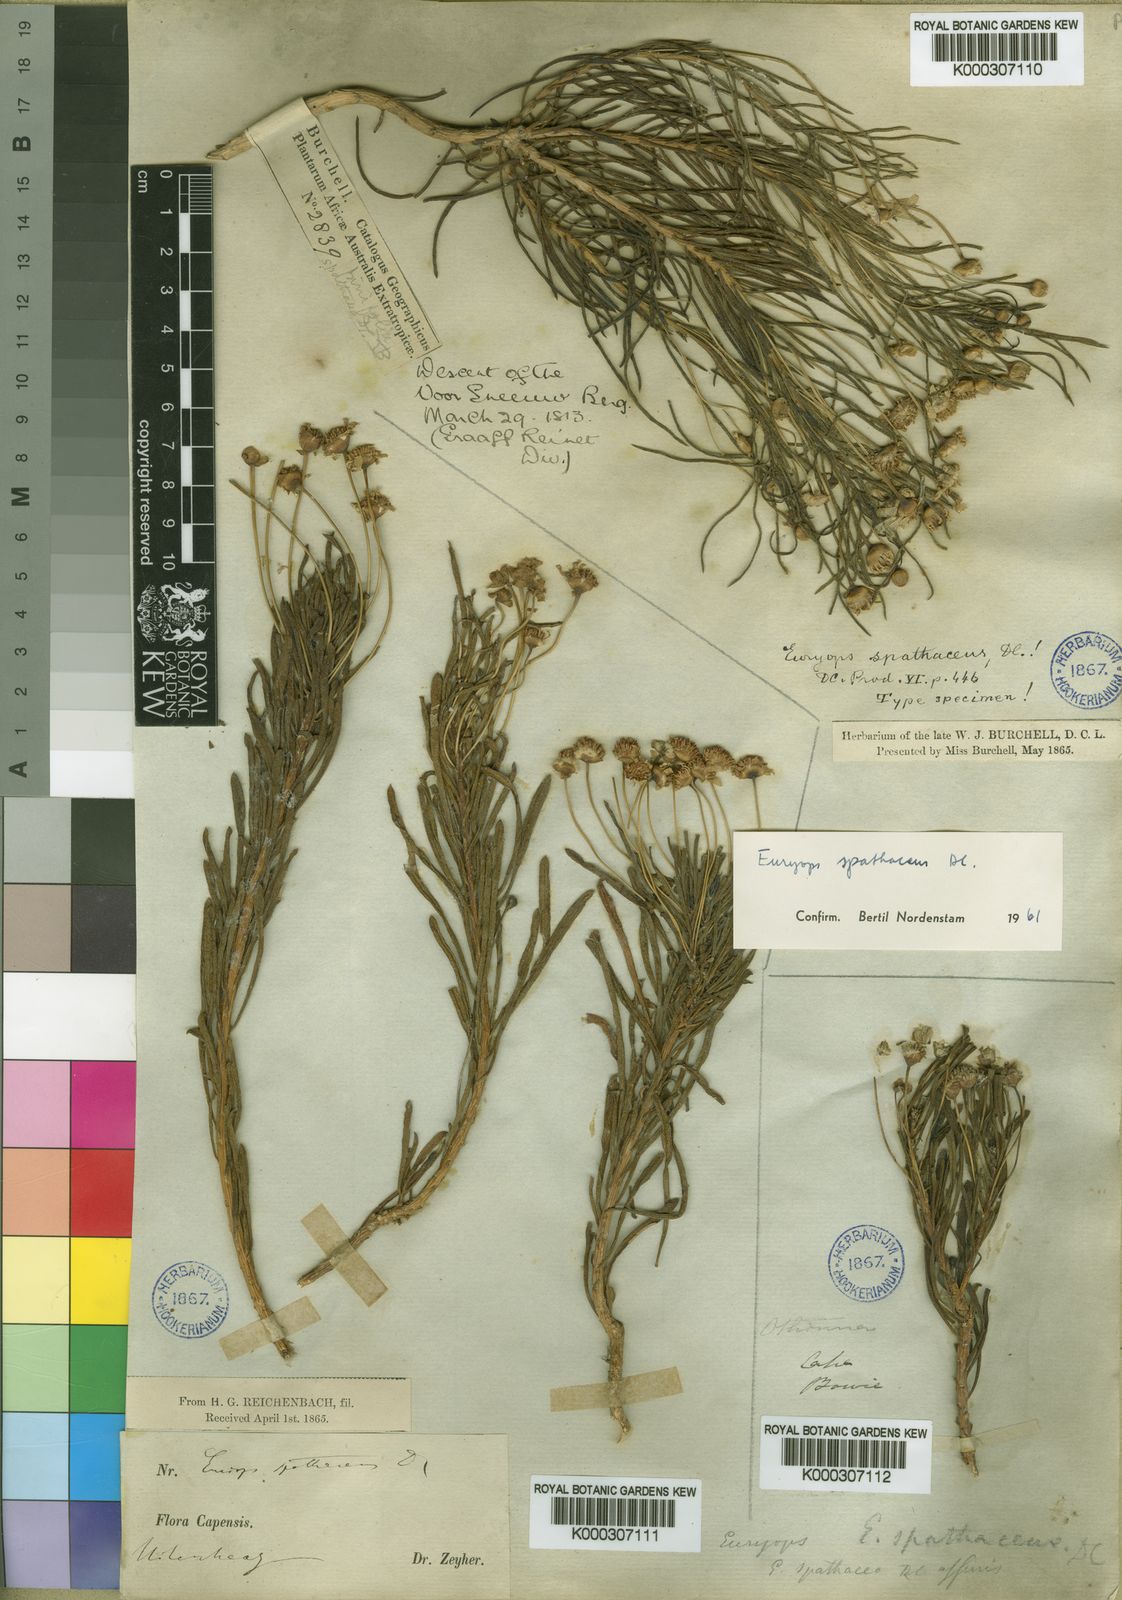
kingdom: Plantae
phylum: Tracheophyta
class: Magnoliopsida
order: Asterales
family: Asteraceae
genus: Euryops
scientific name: Euryops spathaceus
